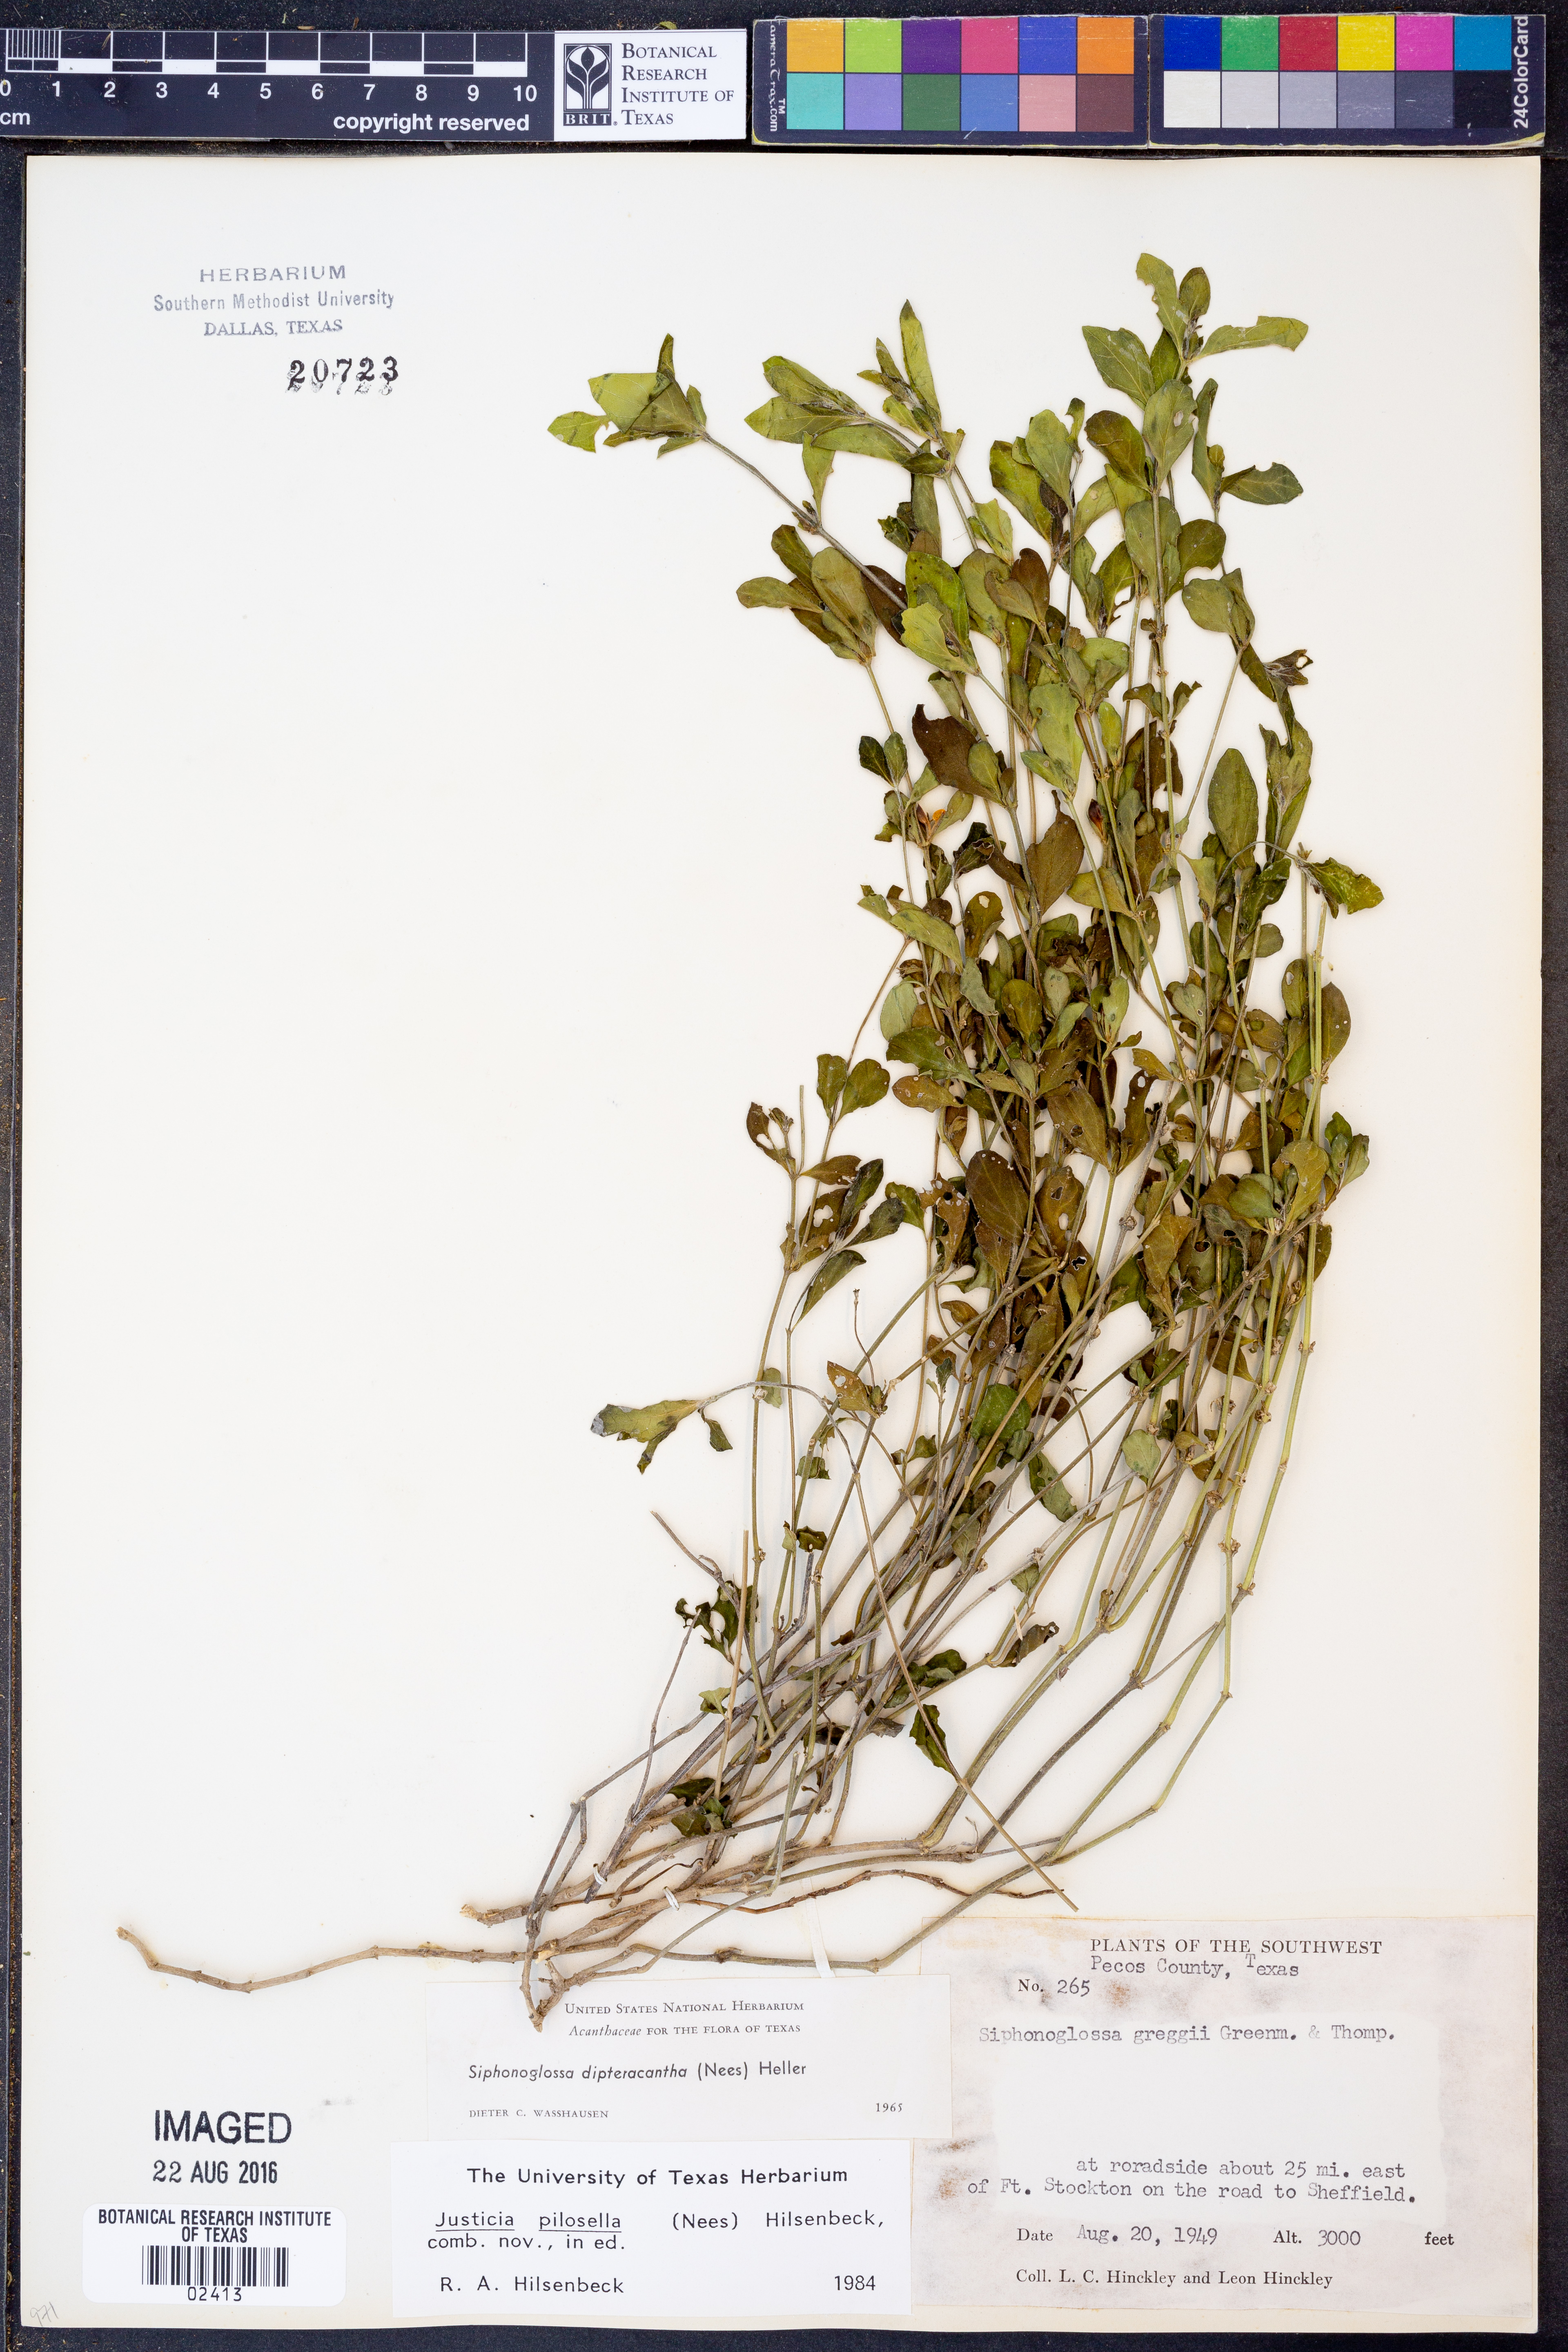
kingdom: Plantae
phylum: Tracheophyta
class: Magnoliopsida
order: Lamiales
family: Acanthaceae
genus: Justicia
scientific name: Justicia pilosella
